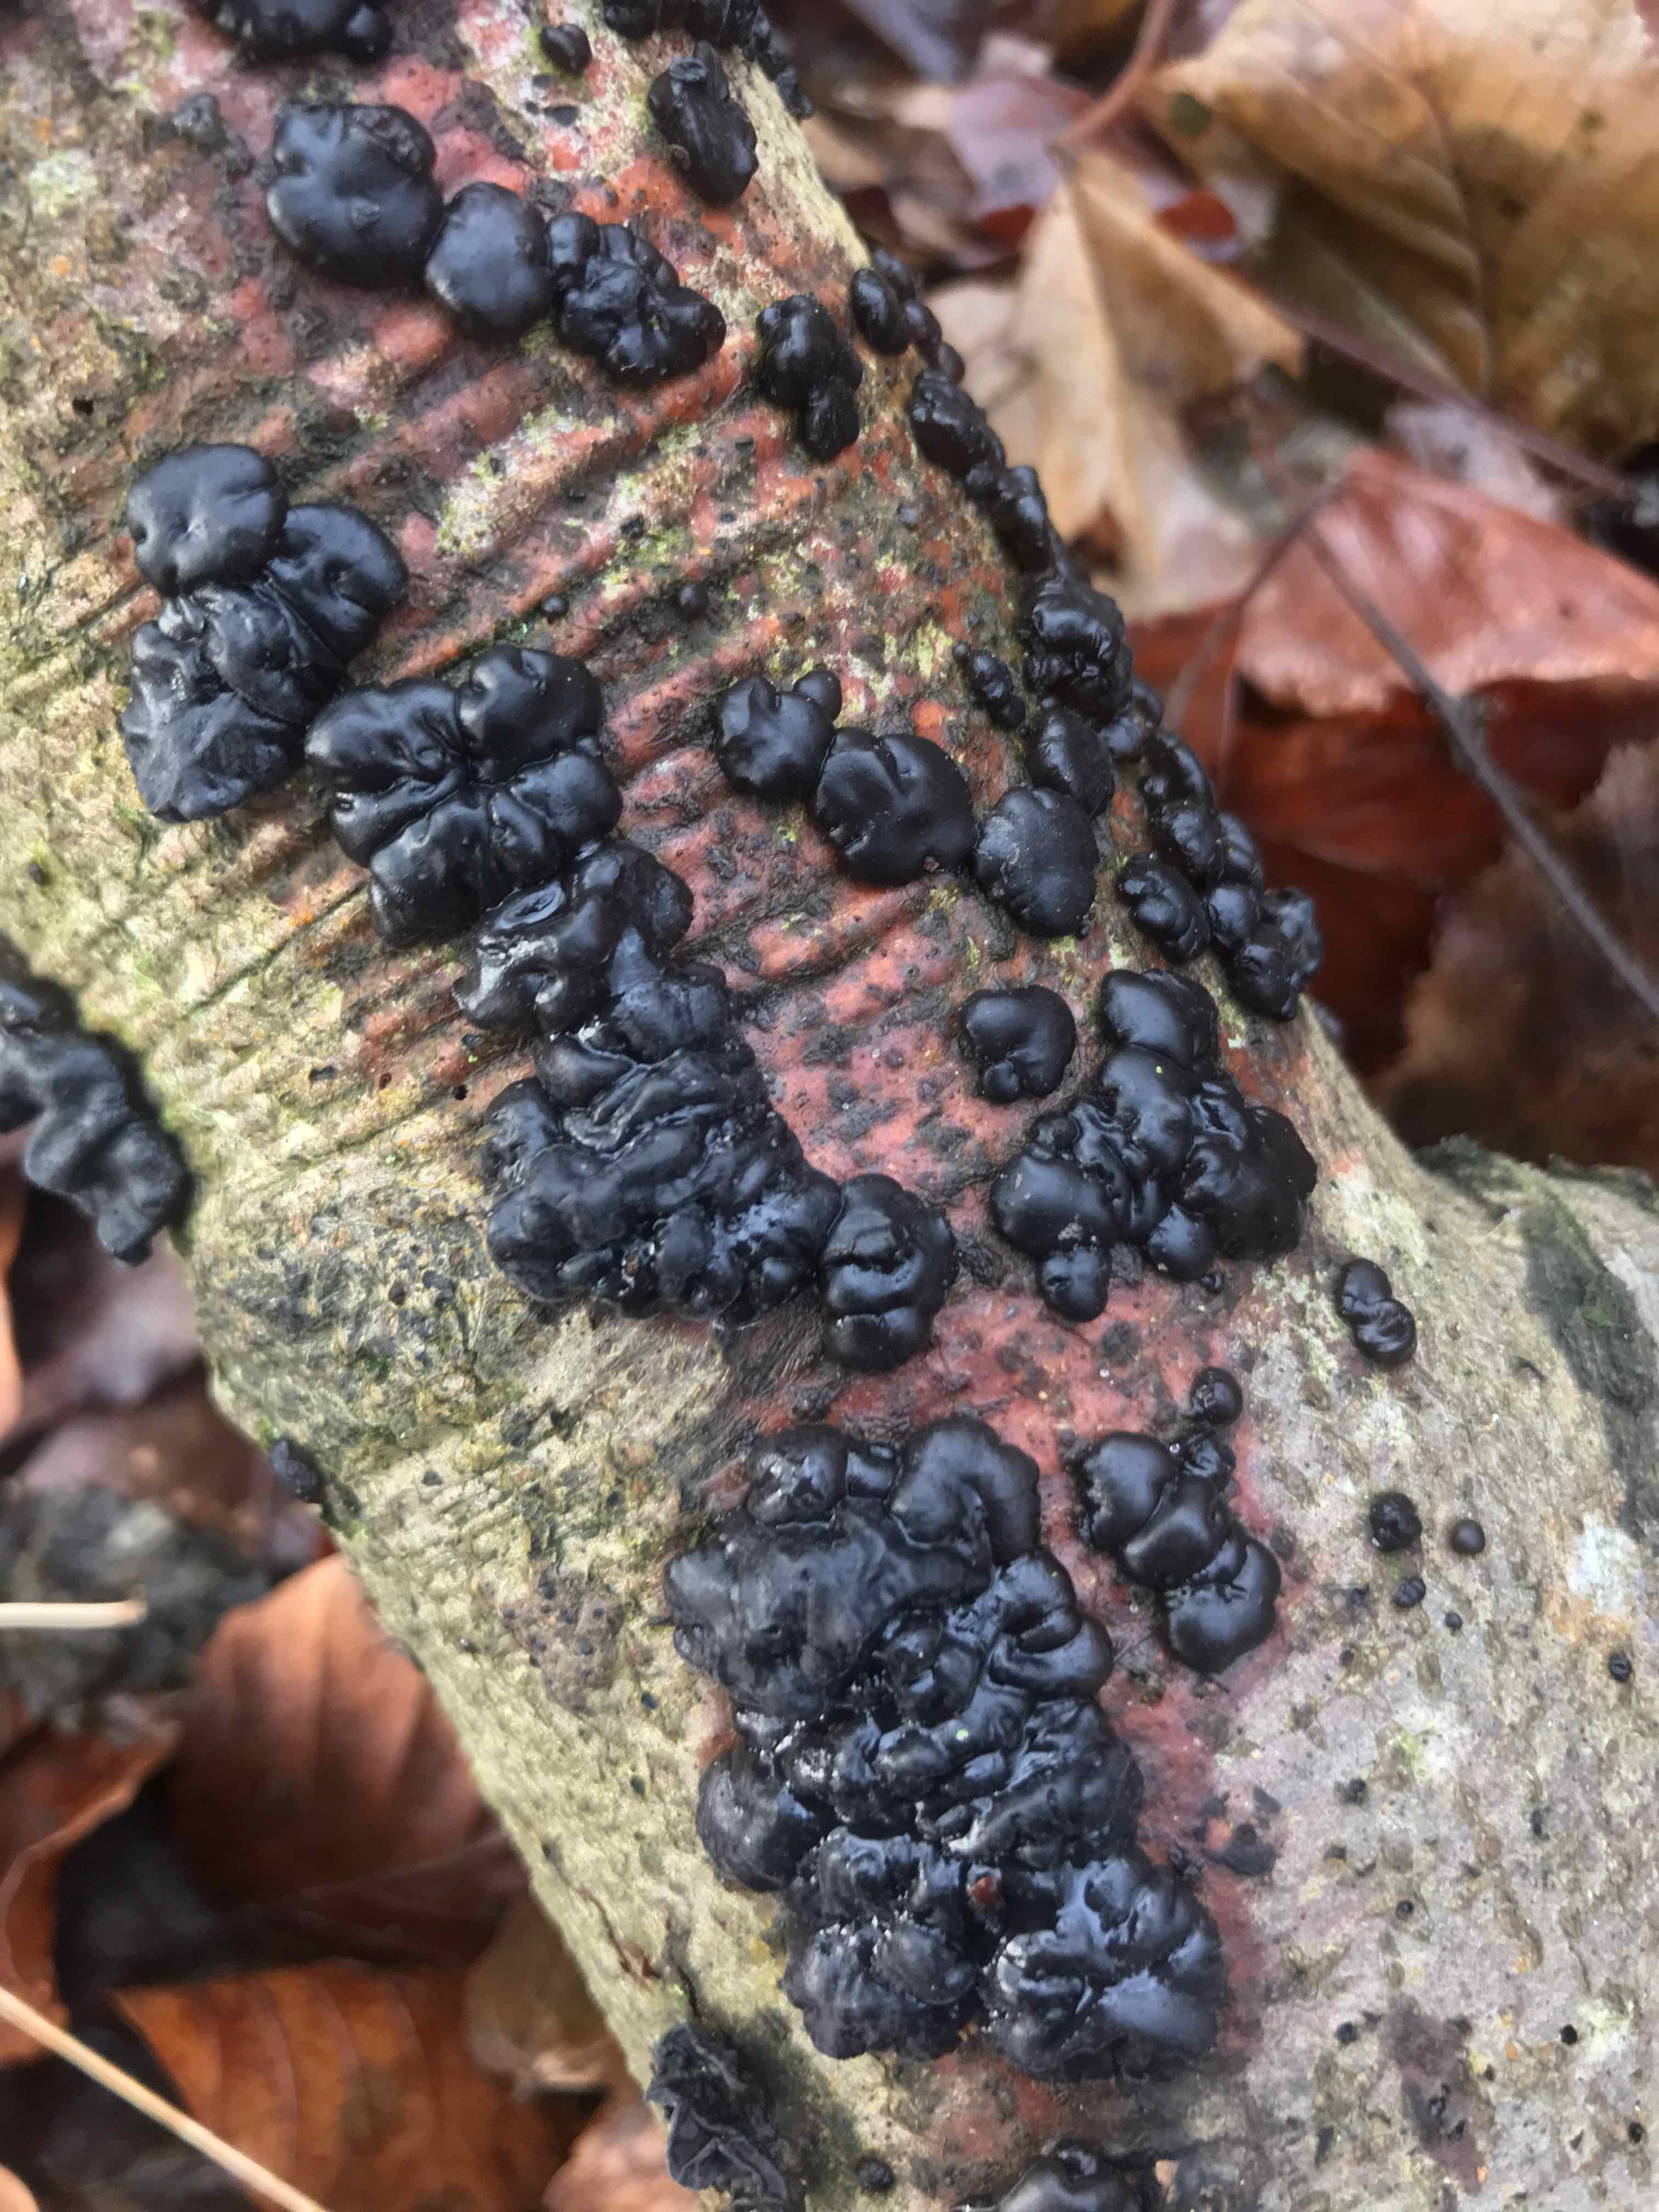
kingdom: Fungi
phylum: Basidiomycota
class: Agaricomycetes
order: Auriculariales
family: Auriculariaceae
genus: Exidia
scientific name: Exidia nigricans
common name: almindelig bævretop
